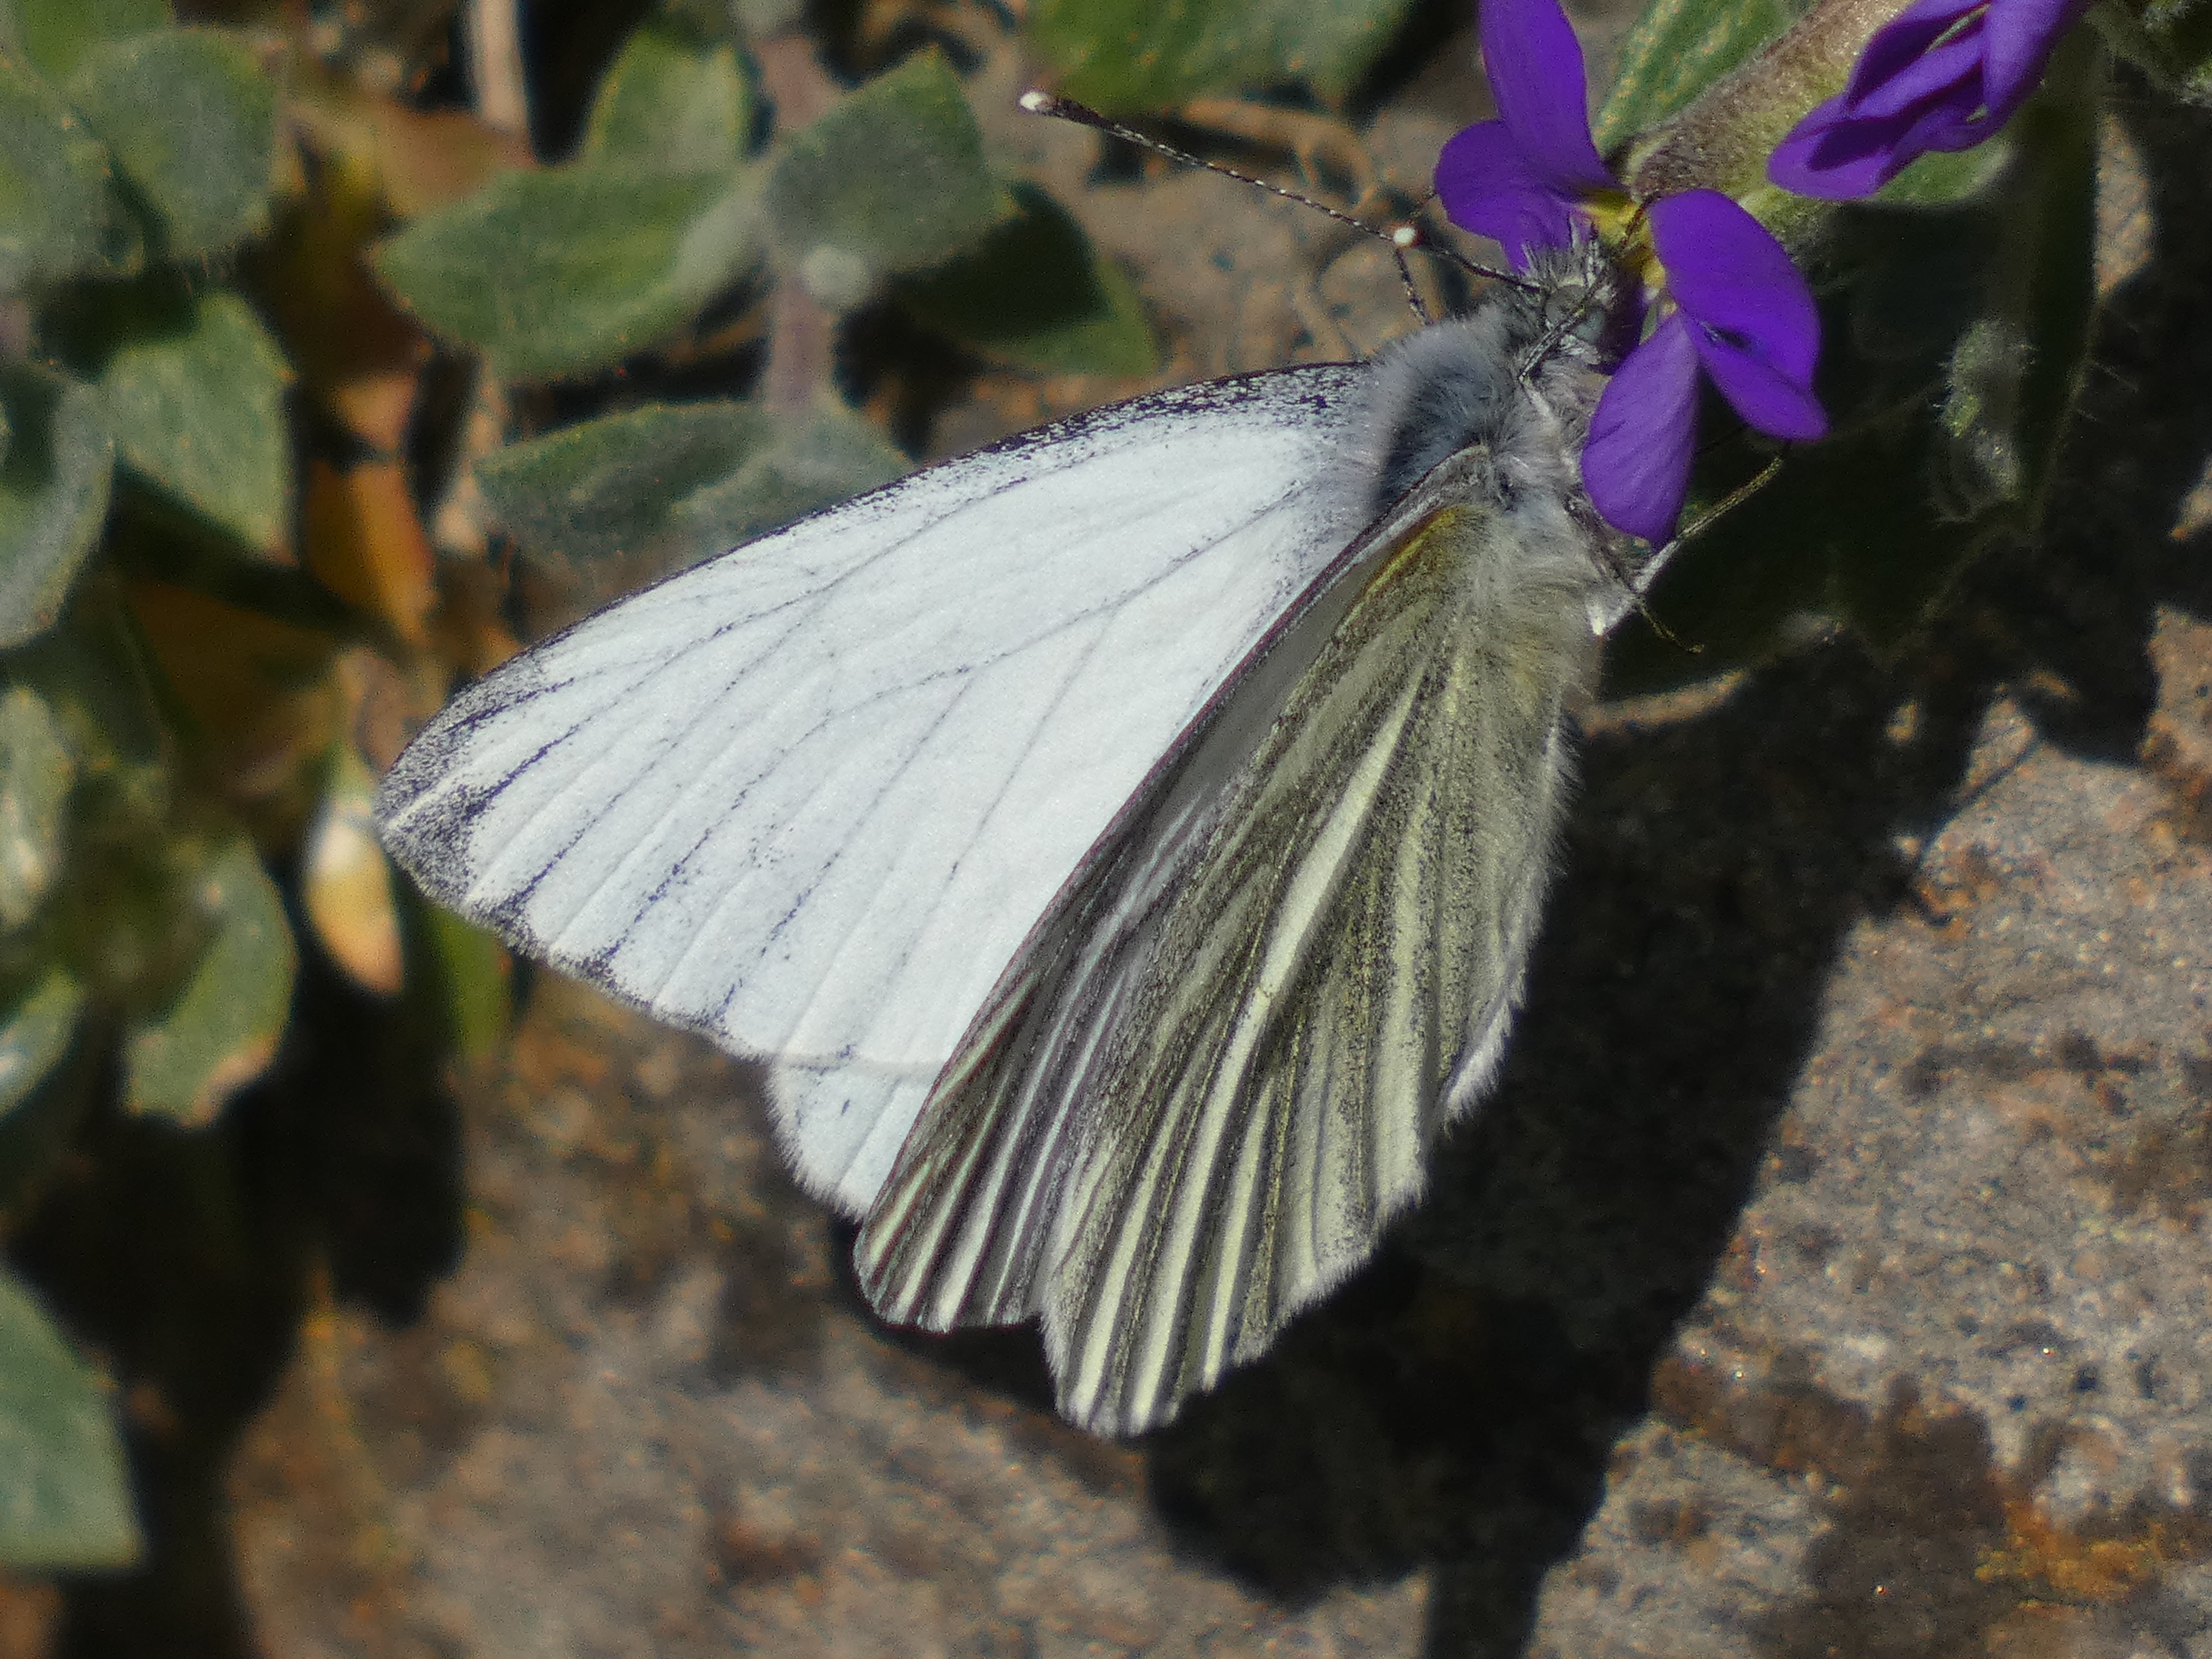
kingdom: Animalia
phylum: Arthropoda
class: Insecta
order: Lepidoptera
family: Pieridae
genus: Pieris
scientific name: Pieris napi
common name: Grønåret kålsommerfugl
